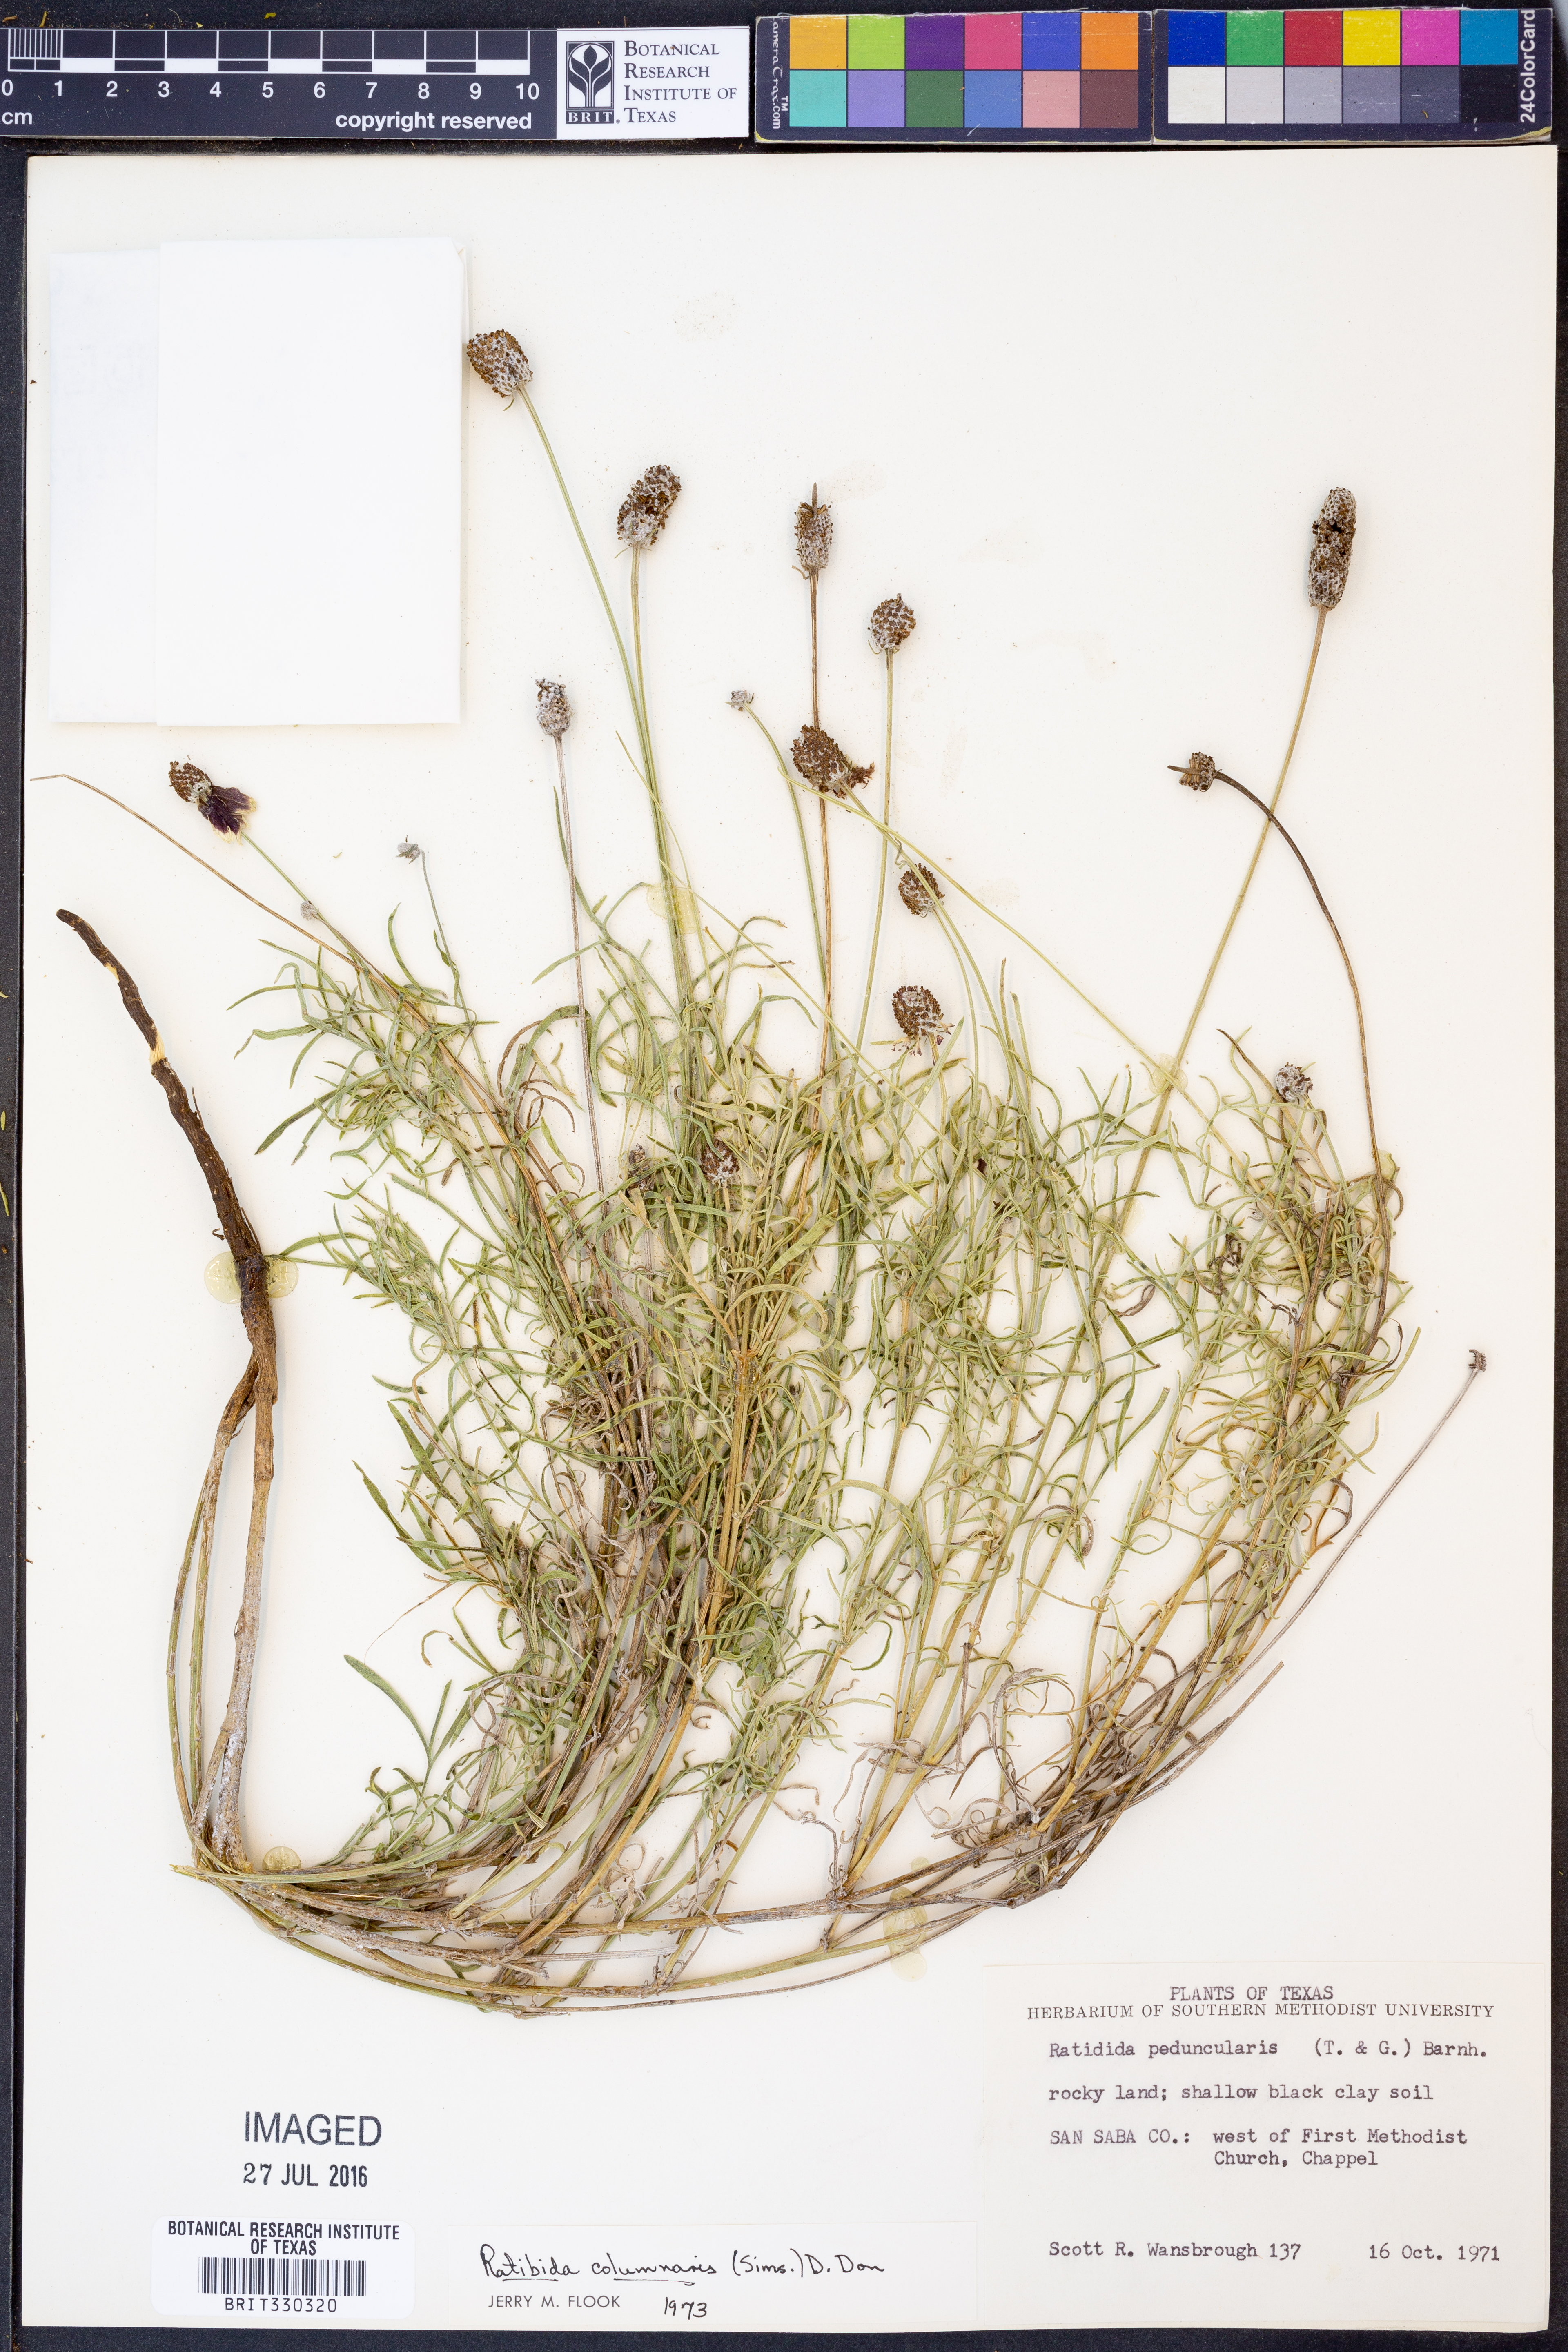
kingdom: Plantae
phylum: Tracheophyta
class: Magnoliopsida
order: Asterales
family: Asteraceae
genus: Ratibida
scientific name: Ratibida columnifera
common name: Prairie coneflower
